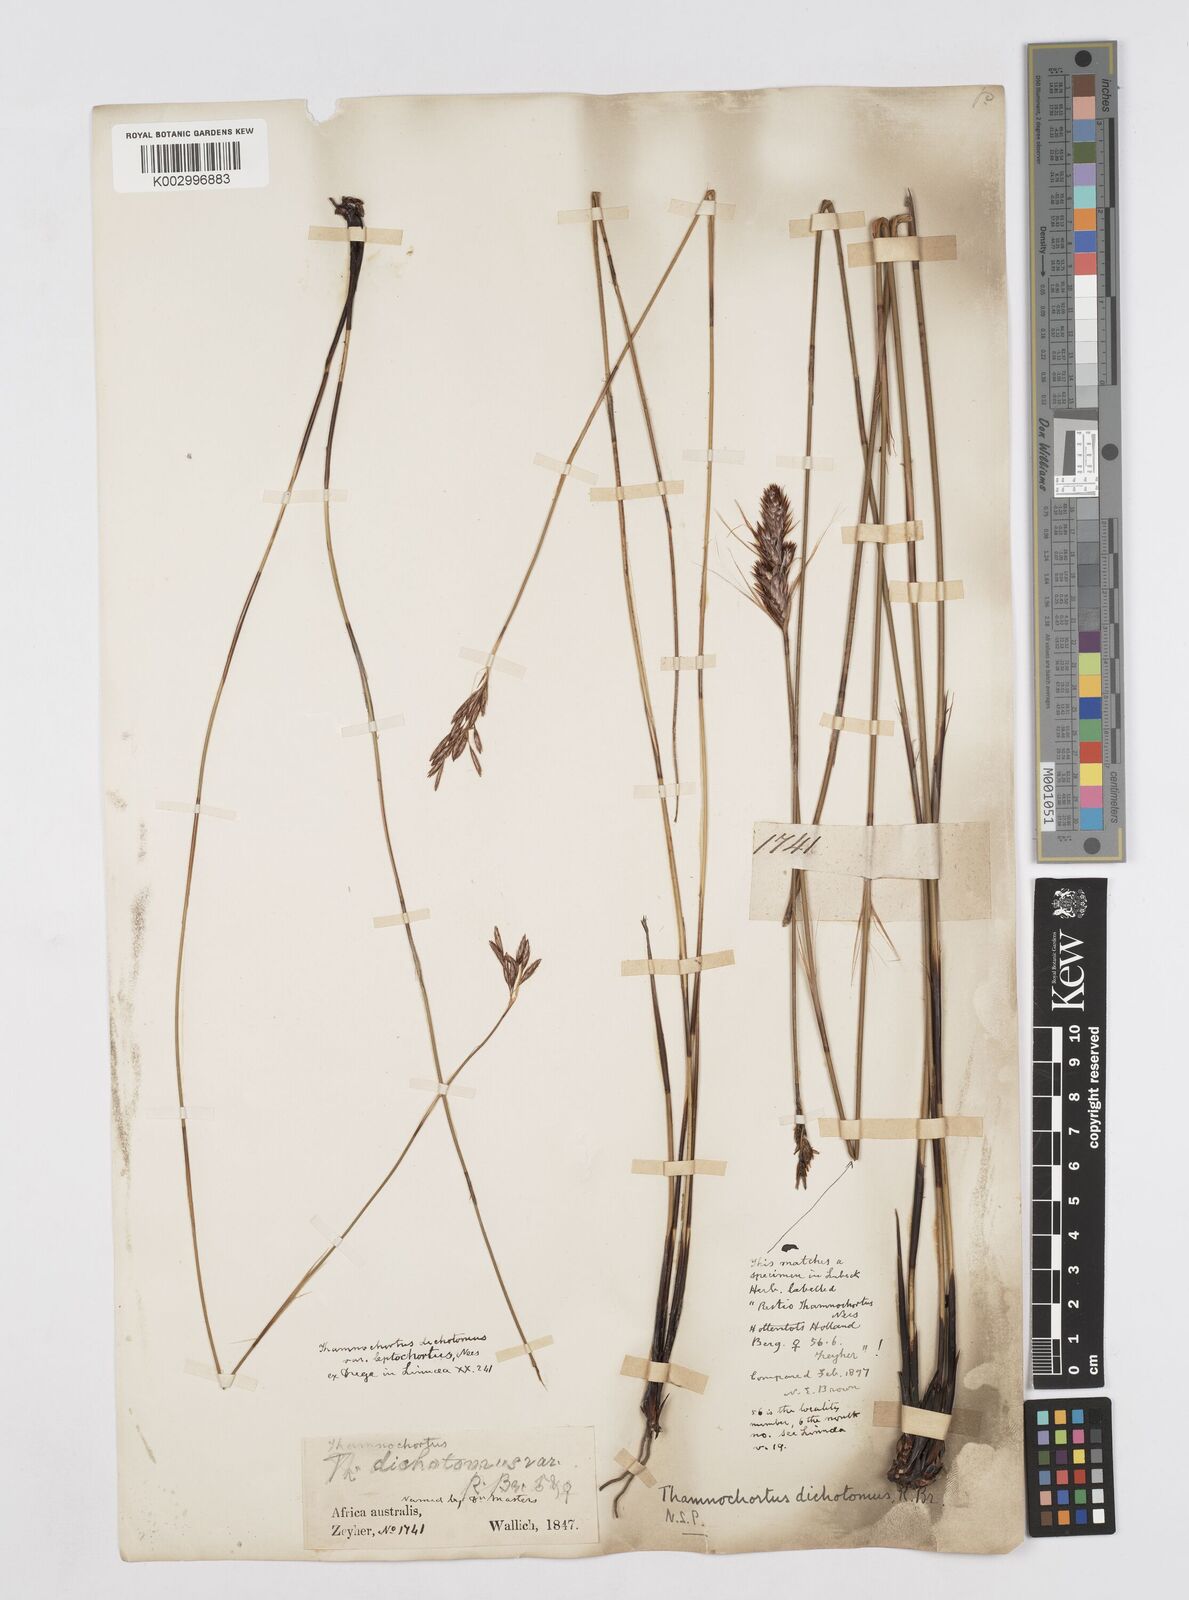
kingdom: Plantae
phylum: Tracheophyta
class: Liliopsida
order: Poales
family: Restionaceae
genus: Thamnochortus
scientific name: Thamnochortus lucens
